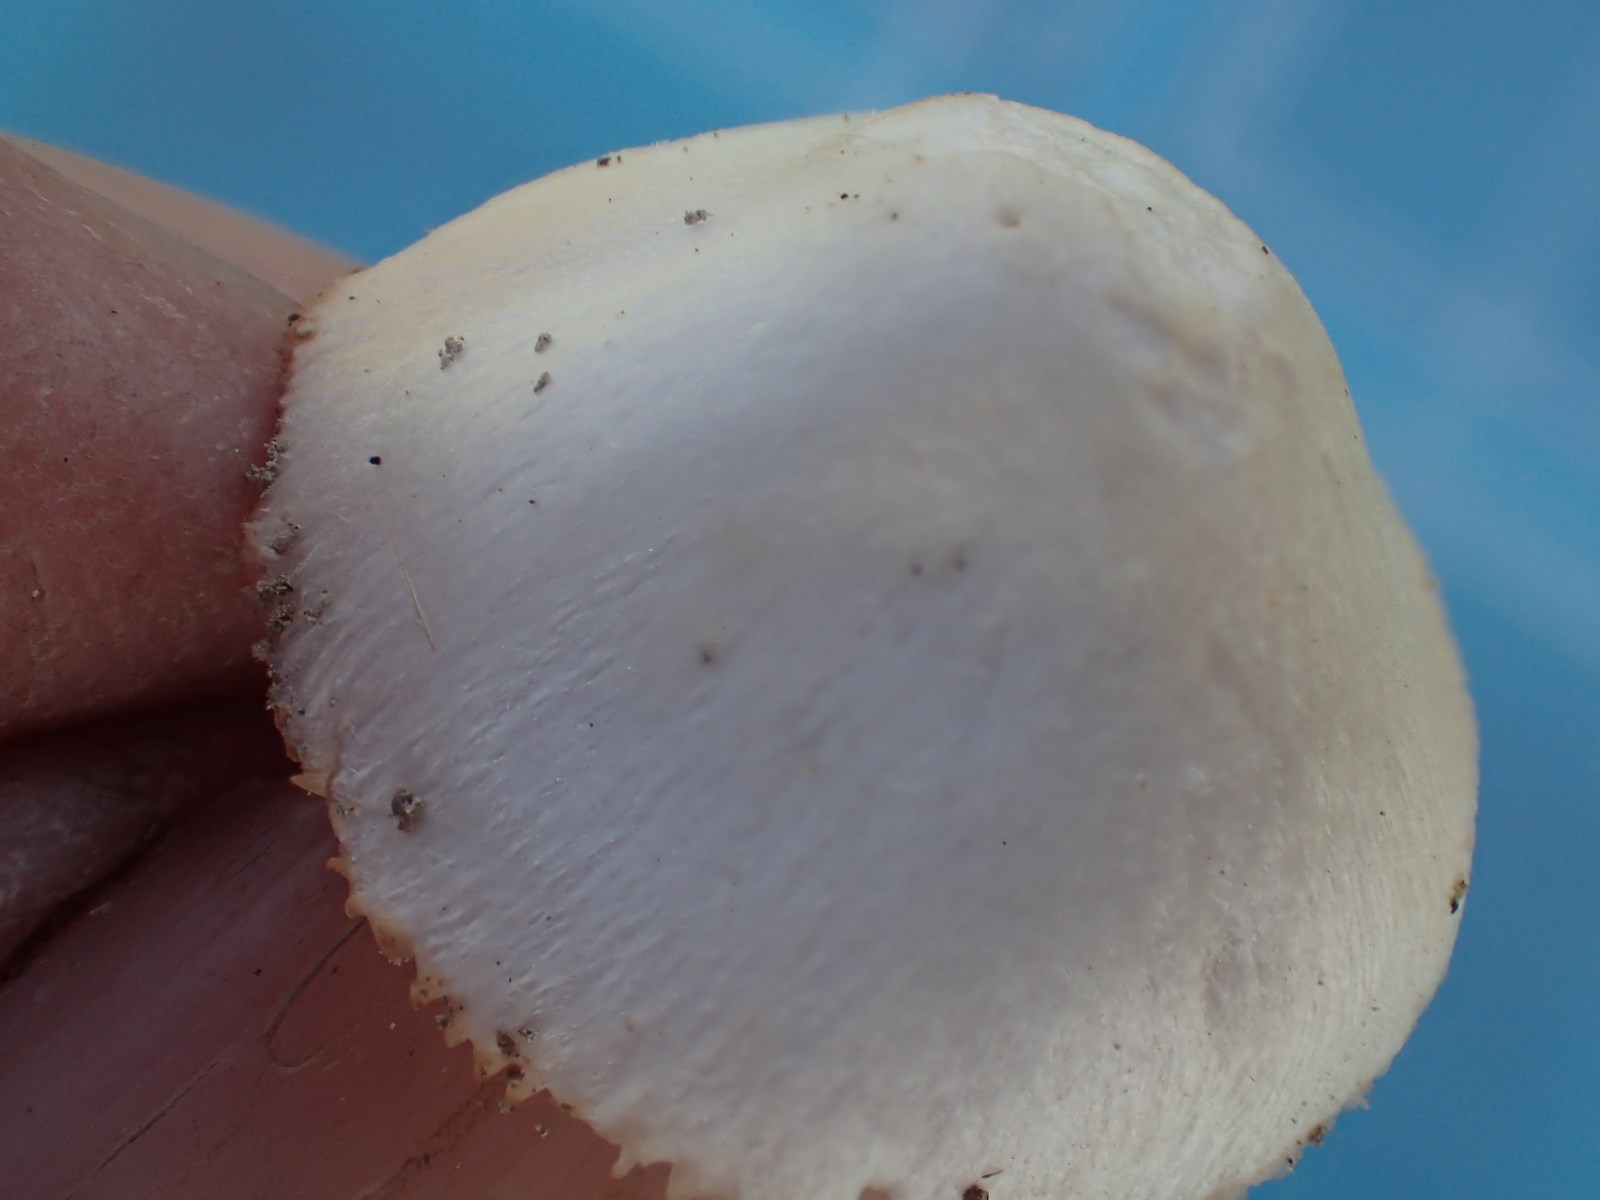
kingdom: Fungi
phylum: Basidiomycota
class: Agaricomycetes
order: Agaricales
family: Pluteaceae
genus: Volvariella
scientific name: Volvariella pusilla
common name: liden posesvamp
